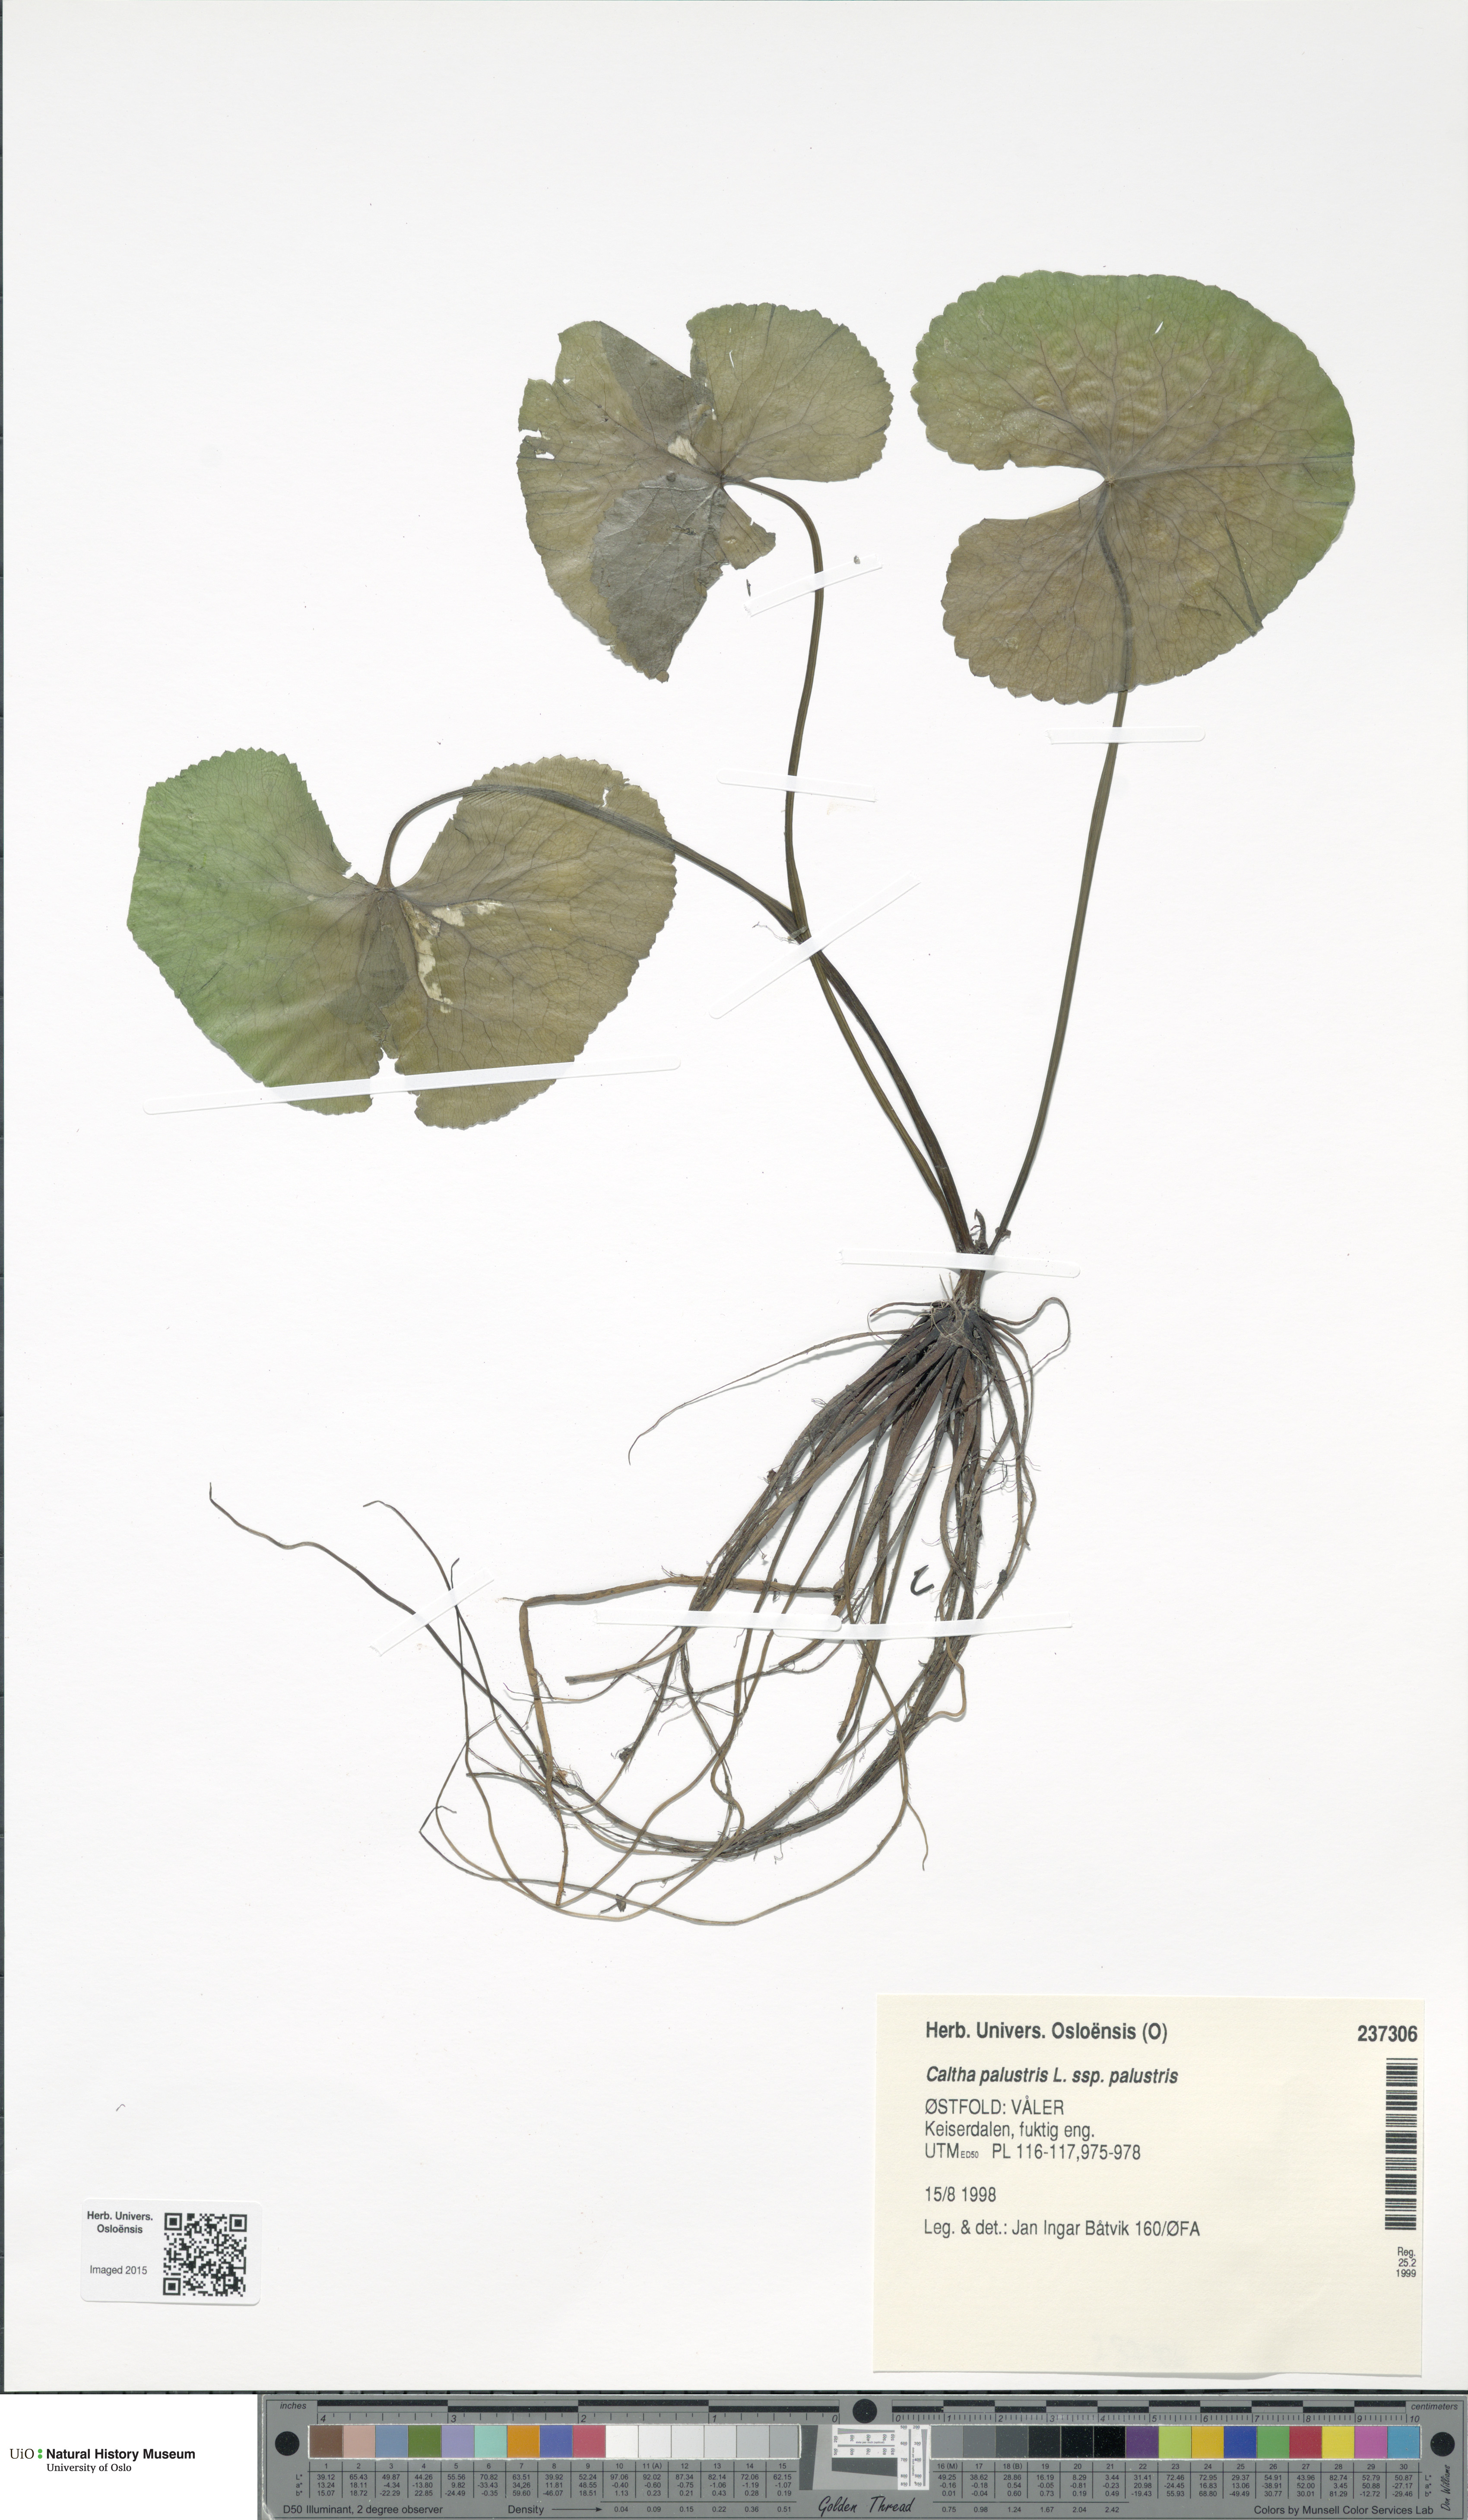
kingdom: Plantae
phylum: Tracheophyta
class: Magnoliopsida
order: Ranunculales
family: Ranunculaceae
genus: Caltha
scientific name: Caltha palustris
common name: Marsh marigold
